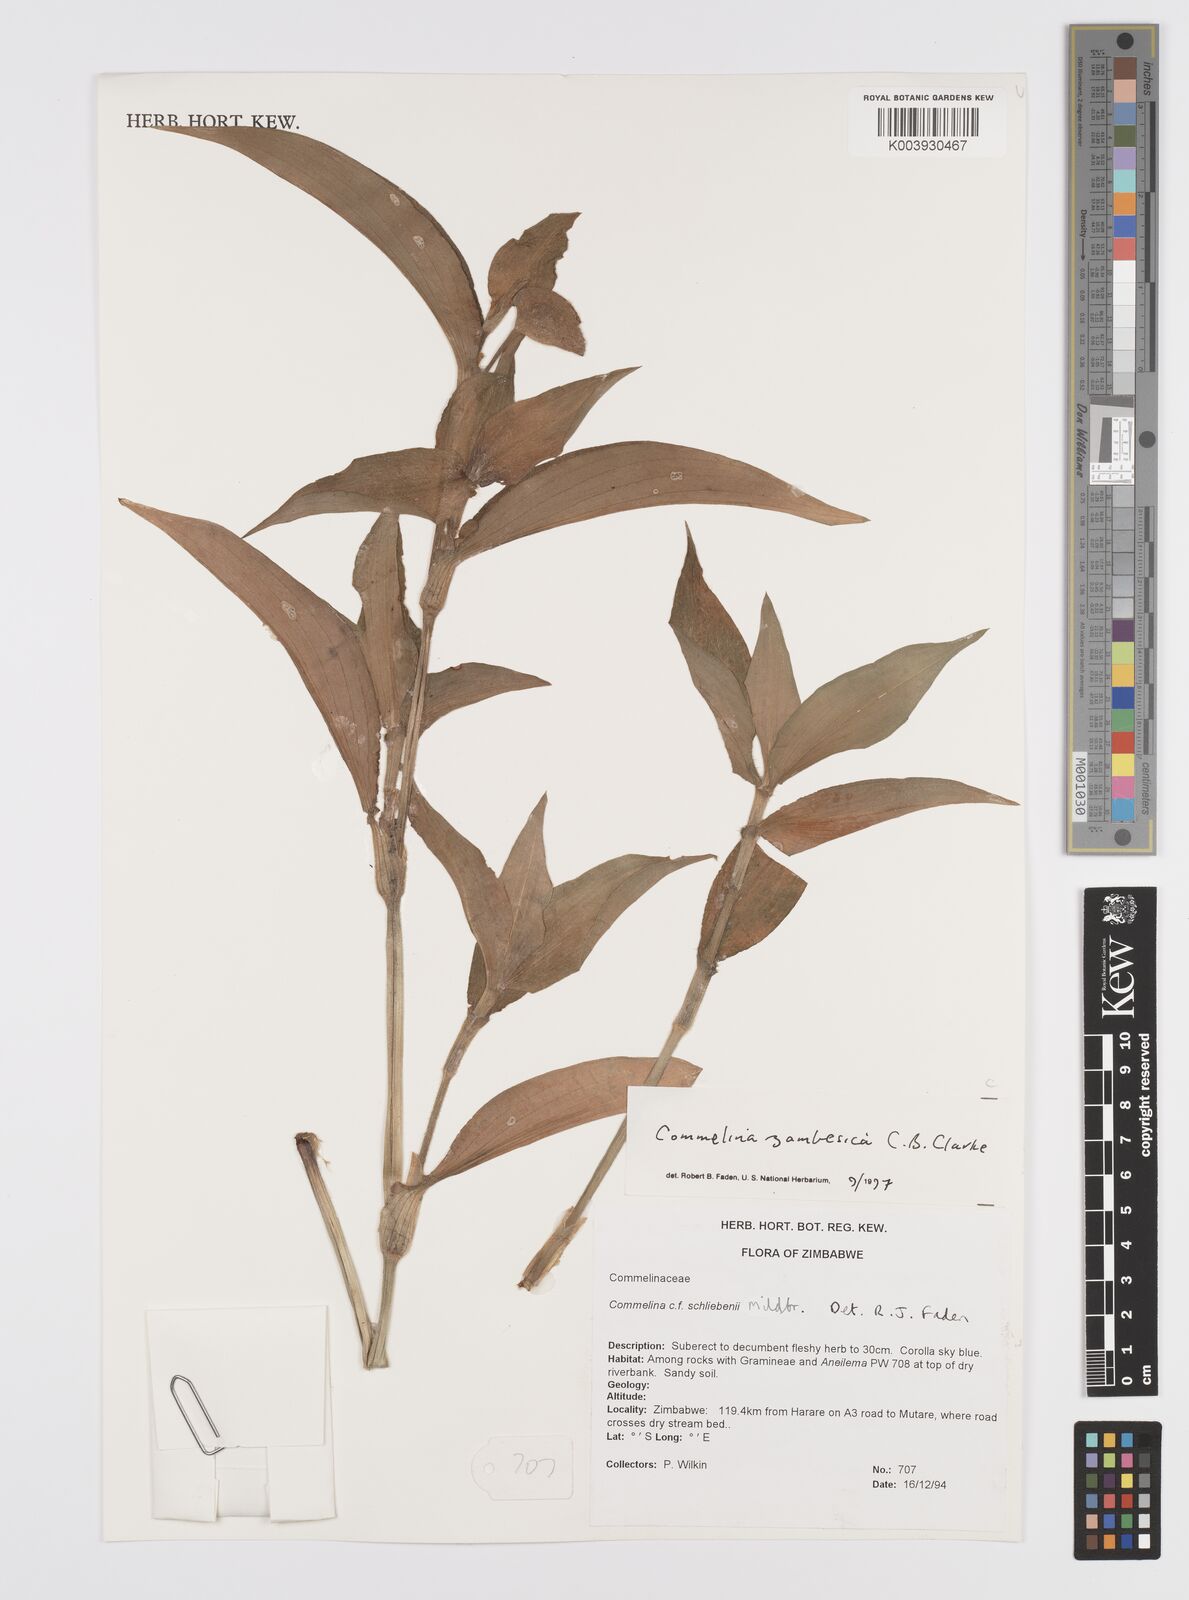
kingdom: Plantae
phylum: Tracheophyta
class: Liliopsida
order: Commelinales
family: Commelinaceae
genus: Commelina
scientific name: Commelina zambesica
